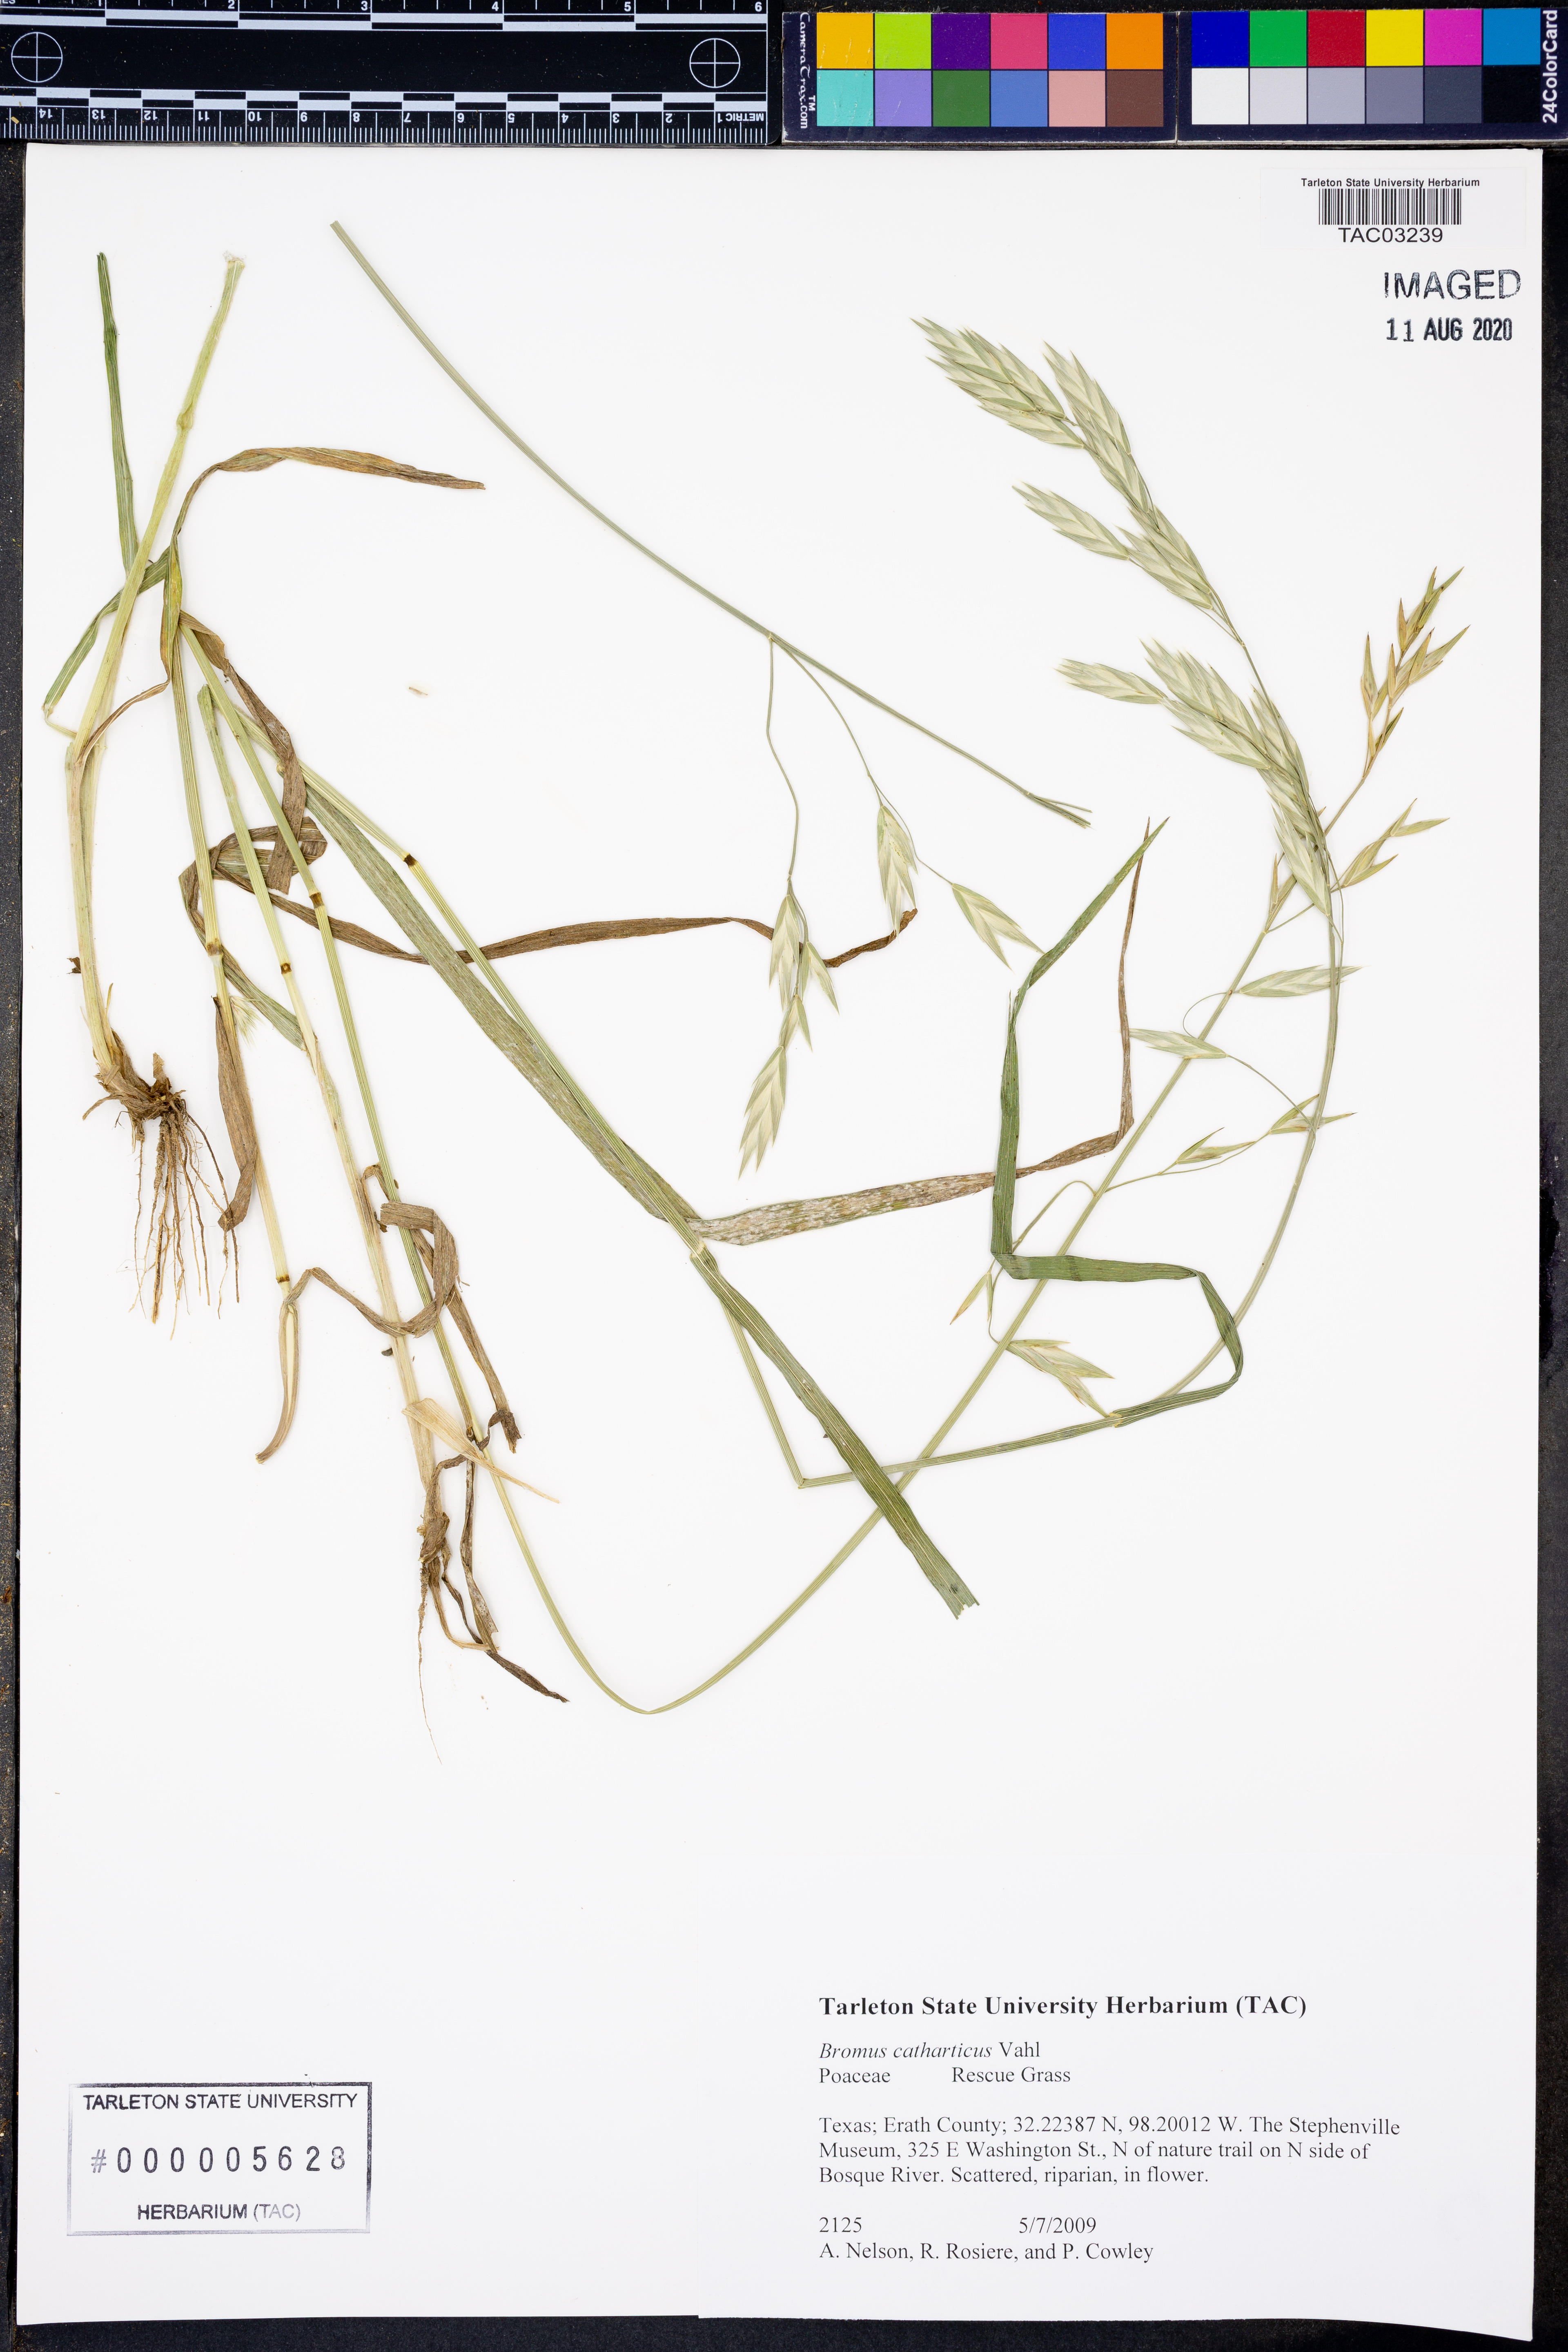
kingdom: Plantae
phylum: Tracheophyta
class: Liliopsida
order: Poales
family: Poaceae
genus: Bromus
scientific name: Bromus catharticus
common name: Rescuegrass
